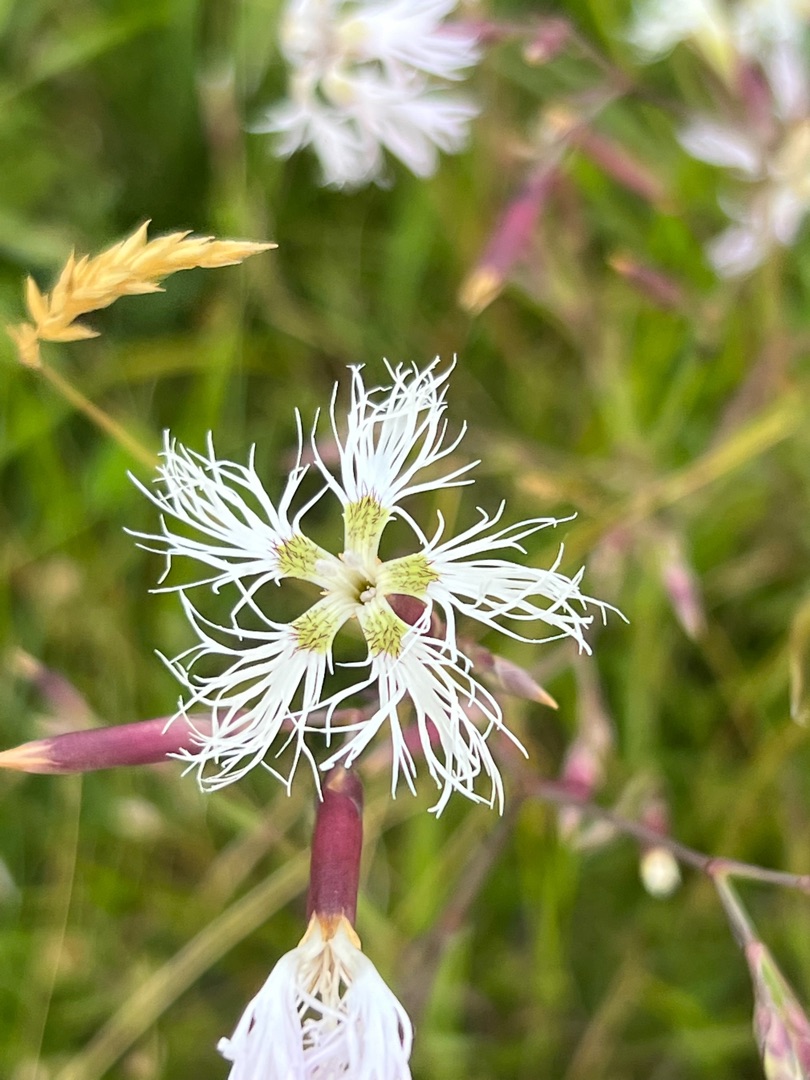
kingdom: Plantae
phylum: Tracheophyta
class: Magnoliopsida
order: Caryophyllales
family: Caryophyllaceae
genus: Dianthus
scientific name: Dianthus superbus
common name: Strand-nellike
